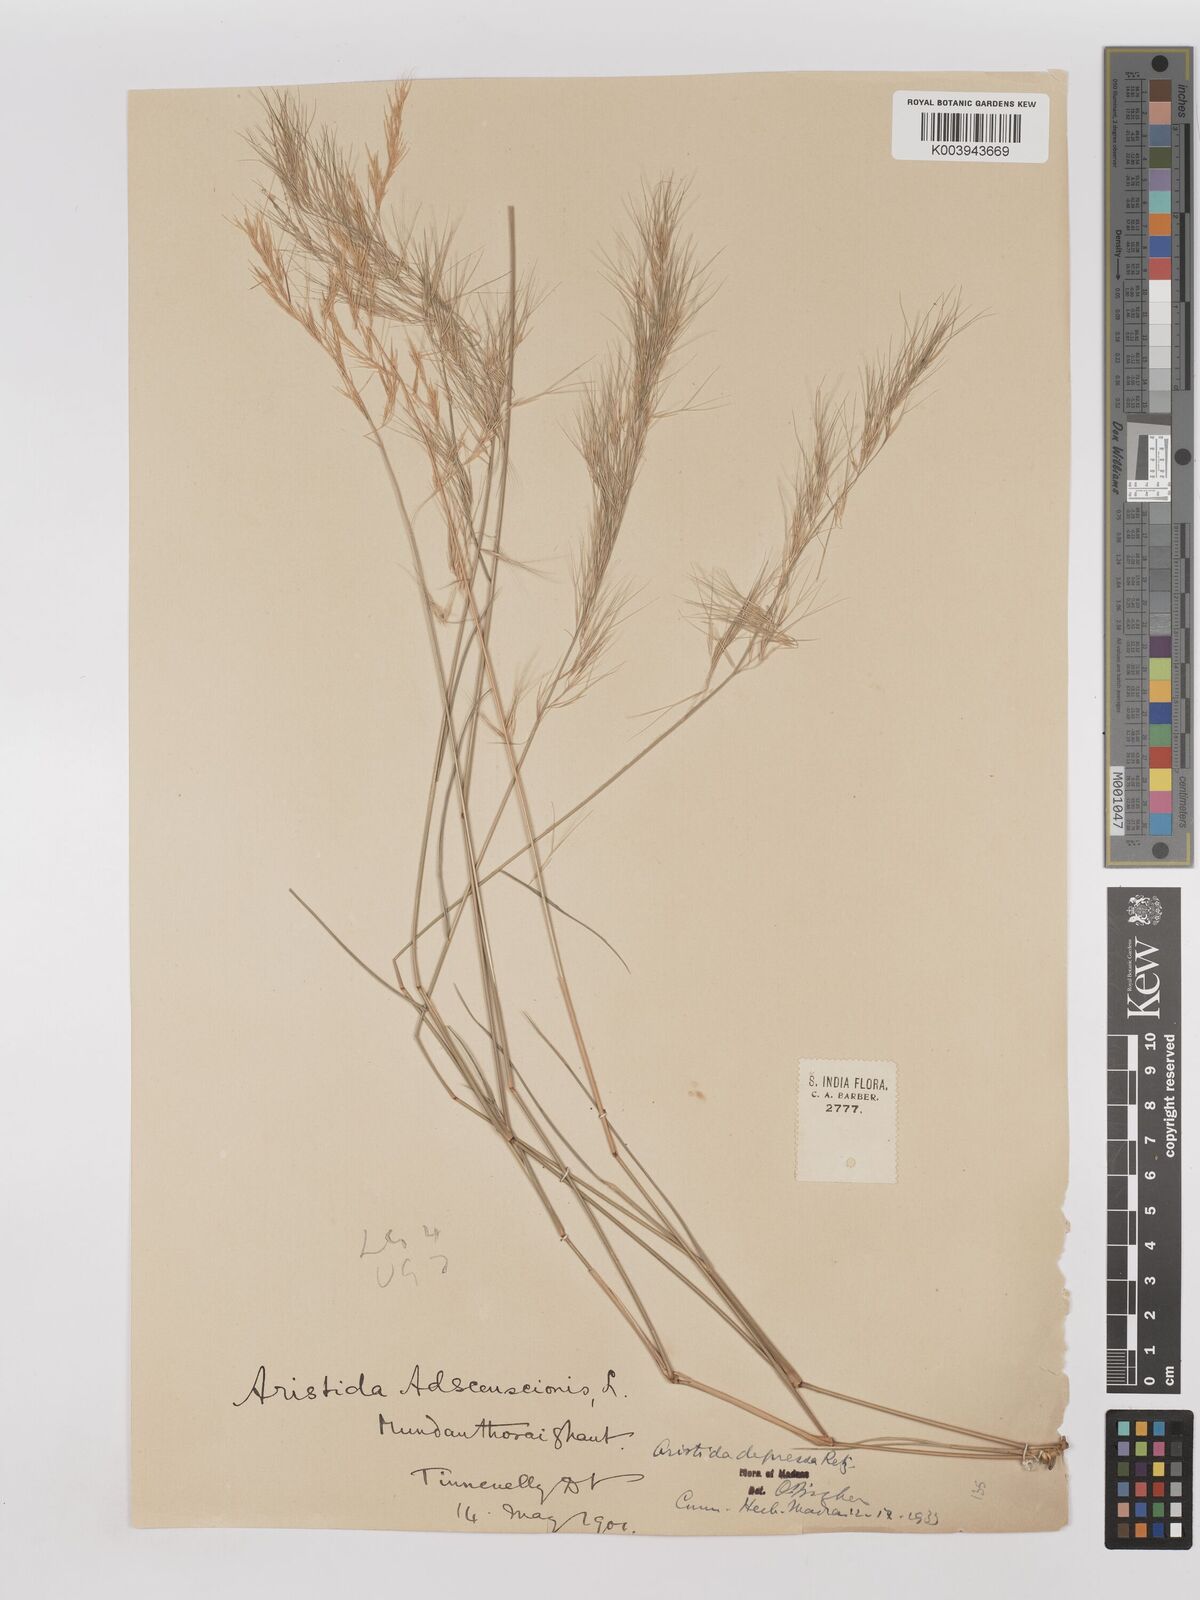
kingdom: Plantae
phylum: Tracheophyta
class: Liliopsida
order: Poales
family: Poaceae
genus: Aristida
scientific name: Aristida adscensionis
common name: Sixweeks threeawn
